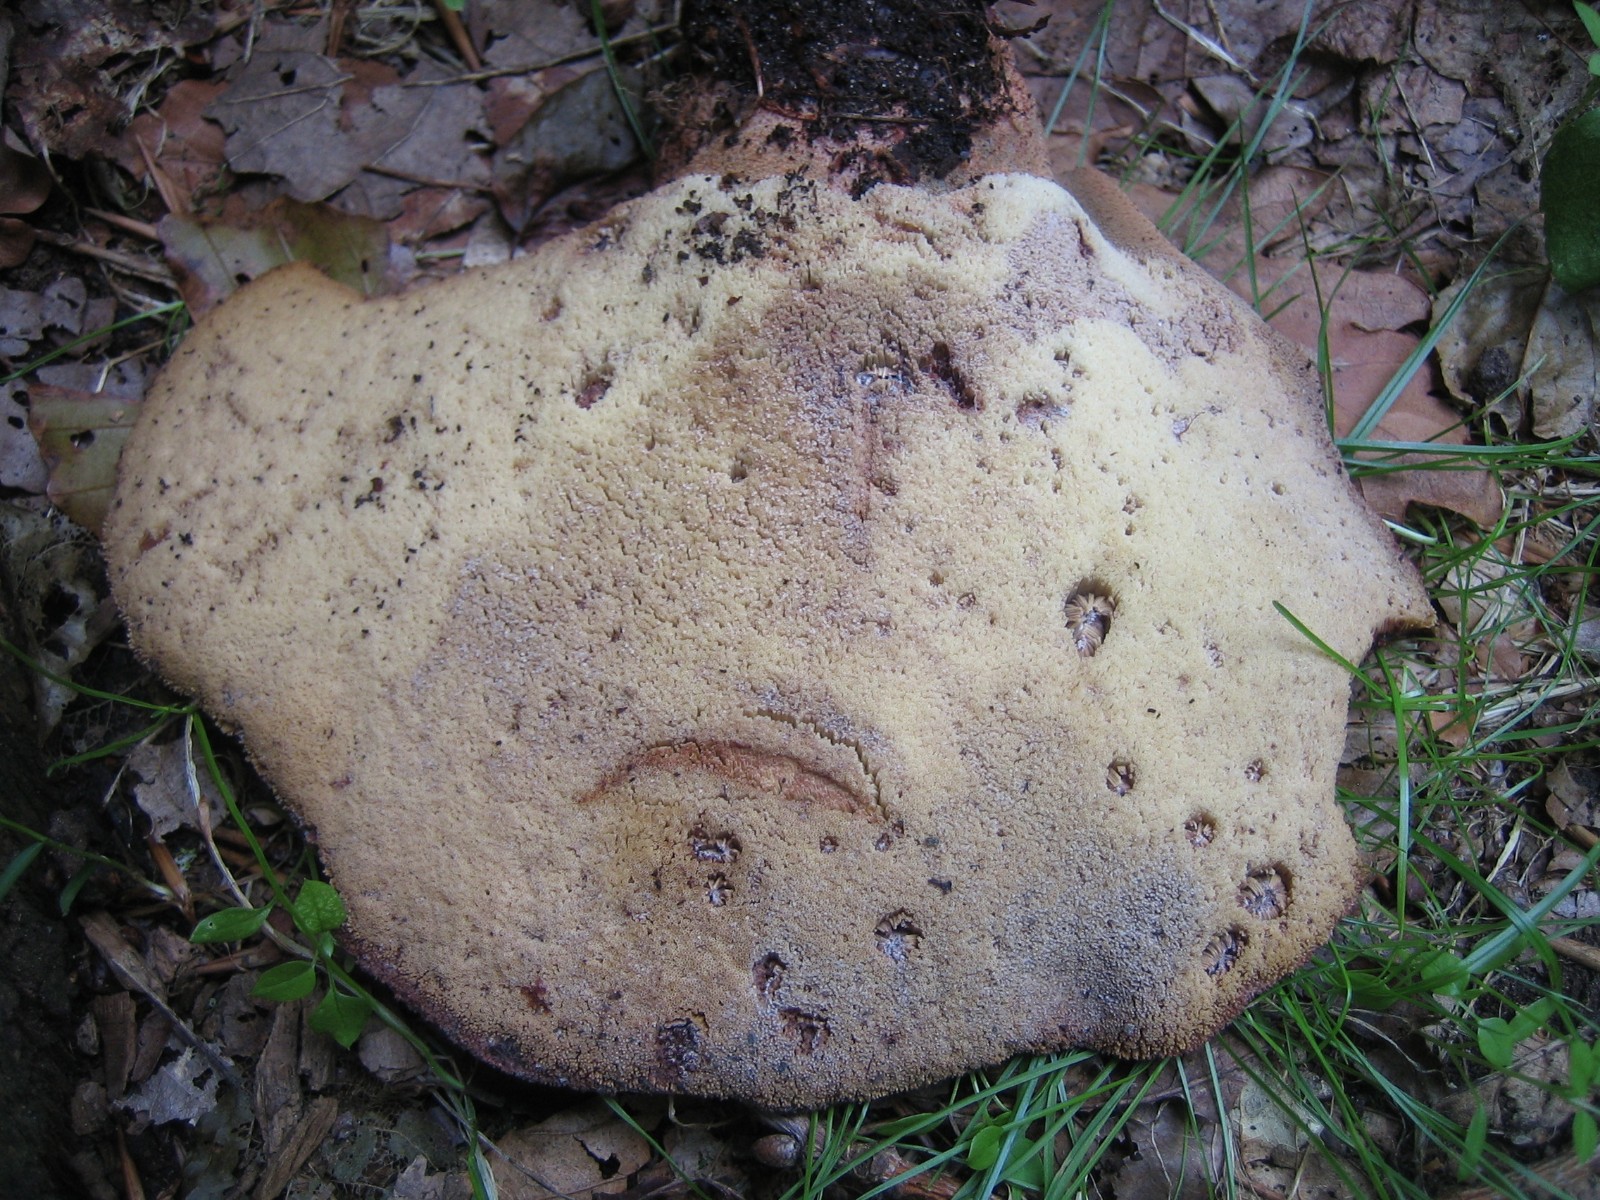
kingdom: Fungi
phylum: Basidiomycota
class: Agaricomycetes
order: Agaricales
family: Fistulinaceae
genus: Fistulina
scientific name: Fistulina hepatica
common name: oksetunge
